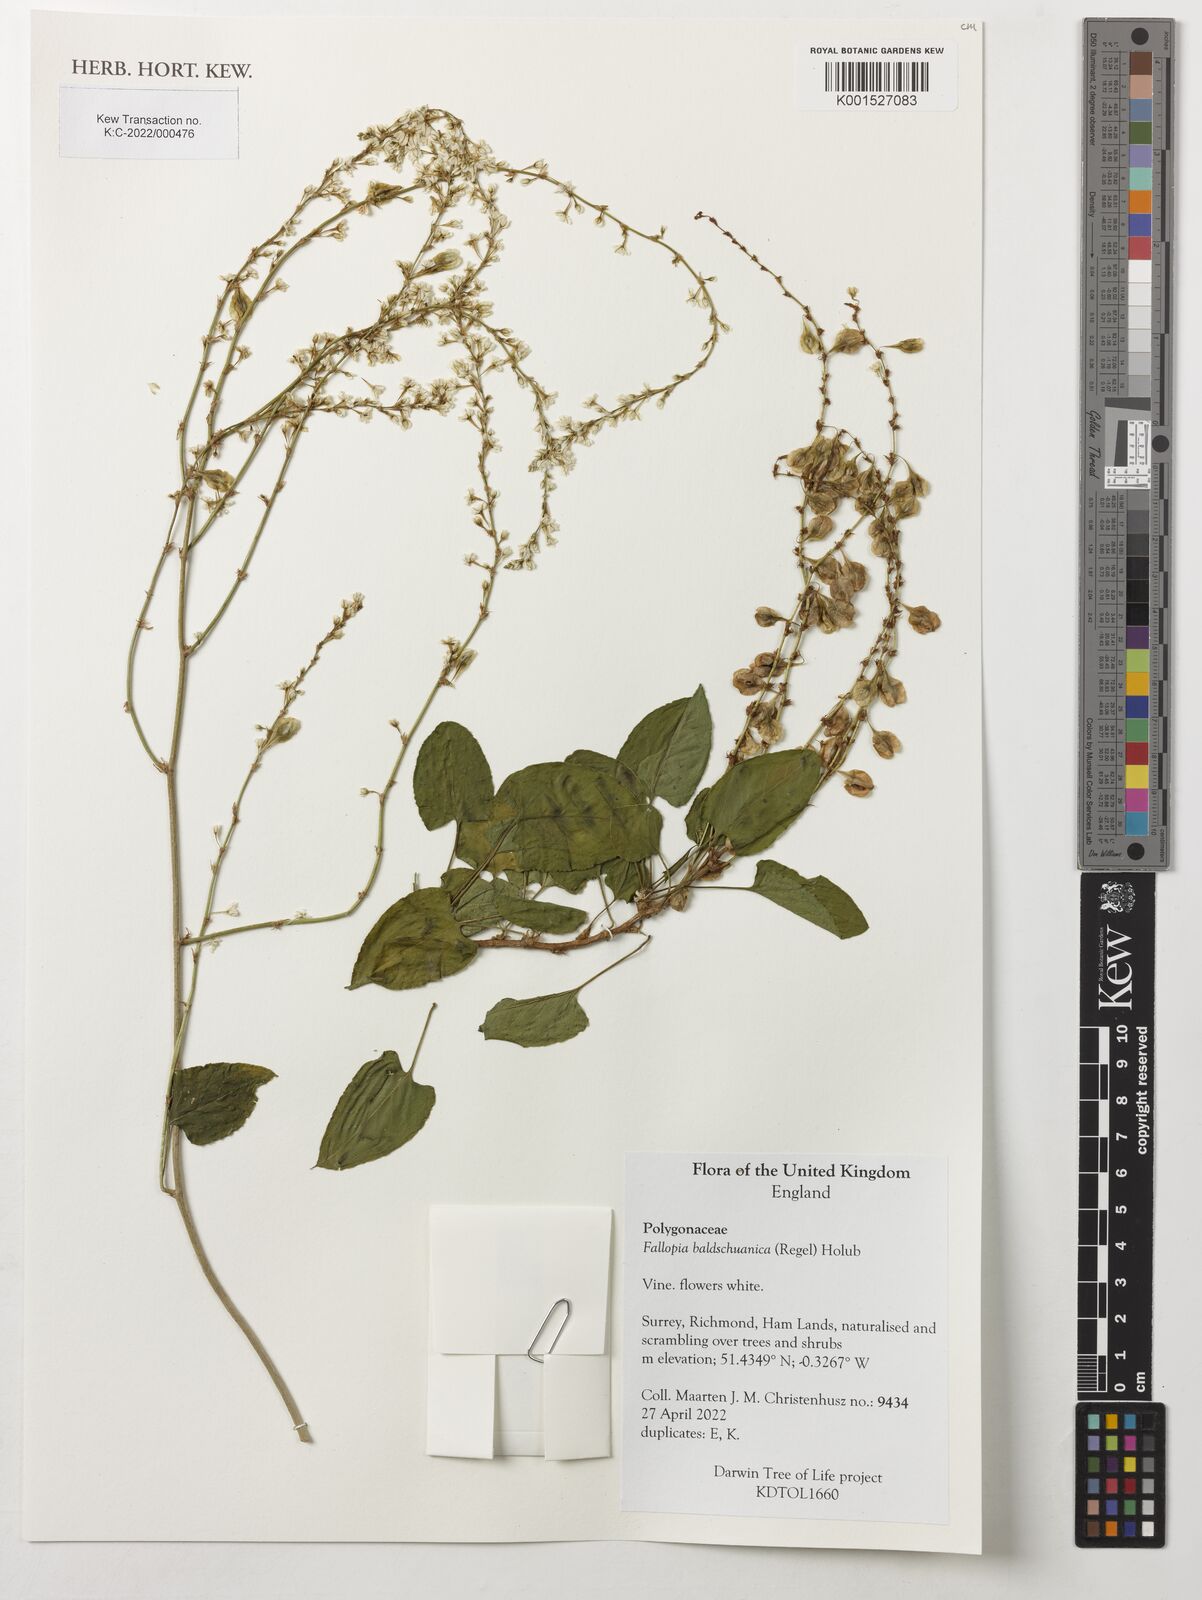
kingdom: Plantae
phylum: Tracheophyta
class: Magnoliopsida
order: Caryophyllales
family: Polygonaceae
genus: Fallopia
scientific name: Fallopia baldschuanica
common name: Russian-vine
